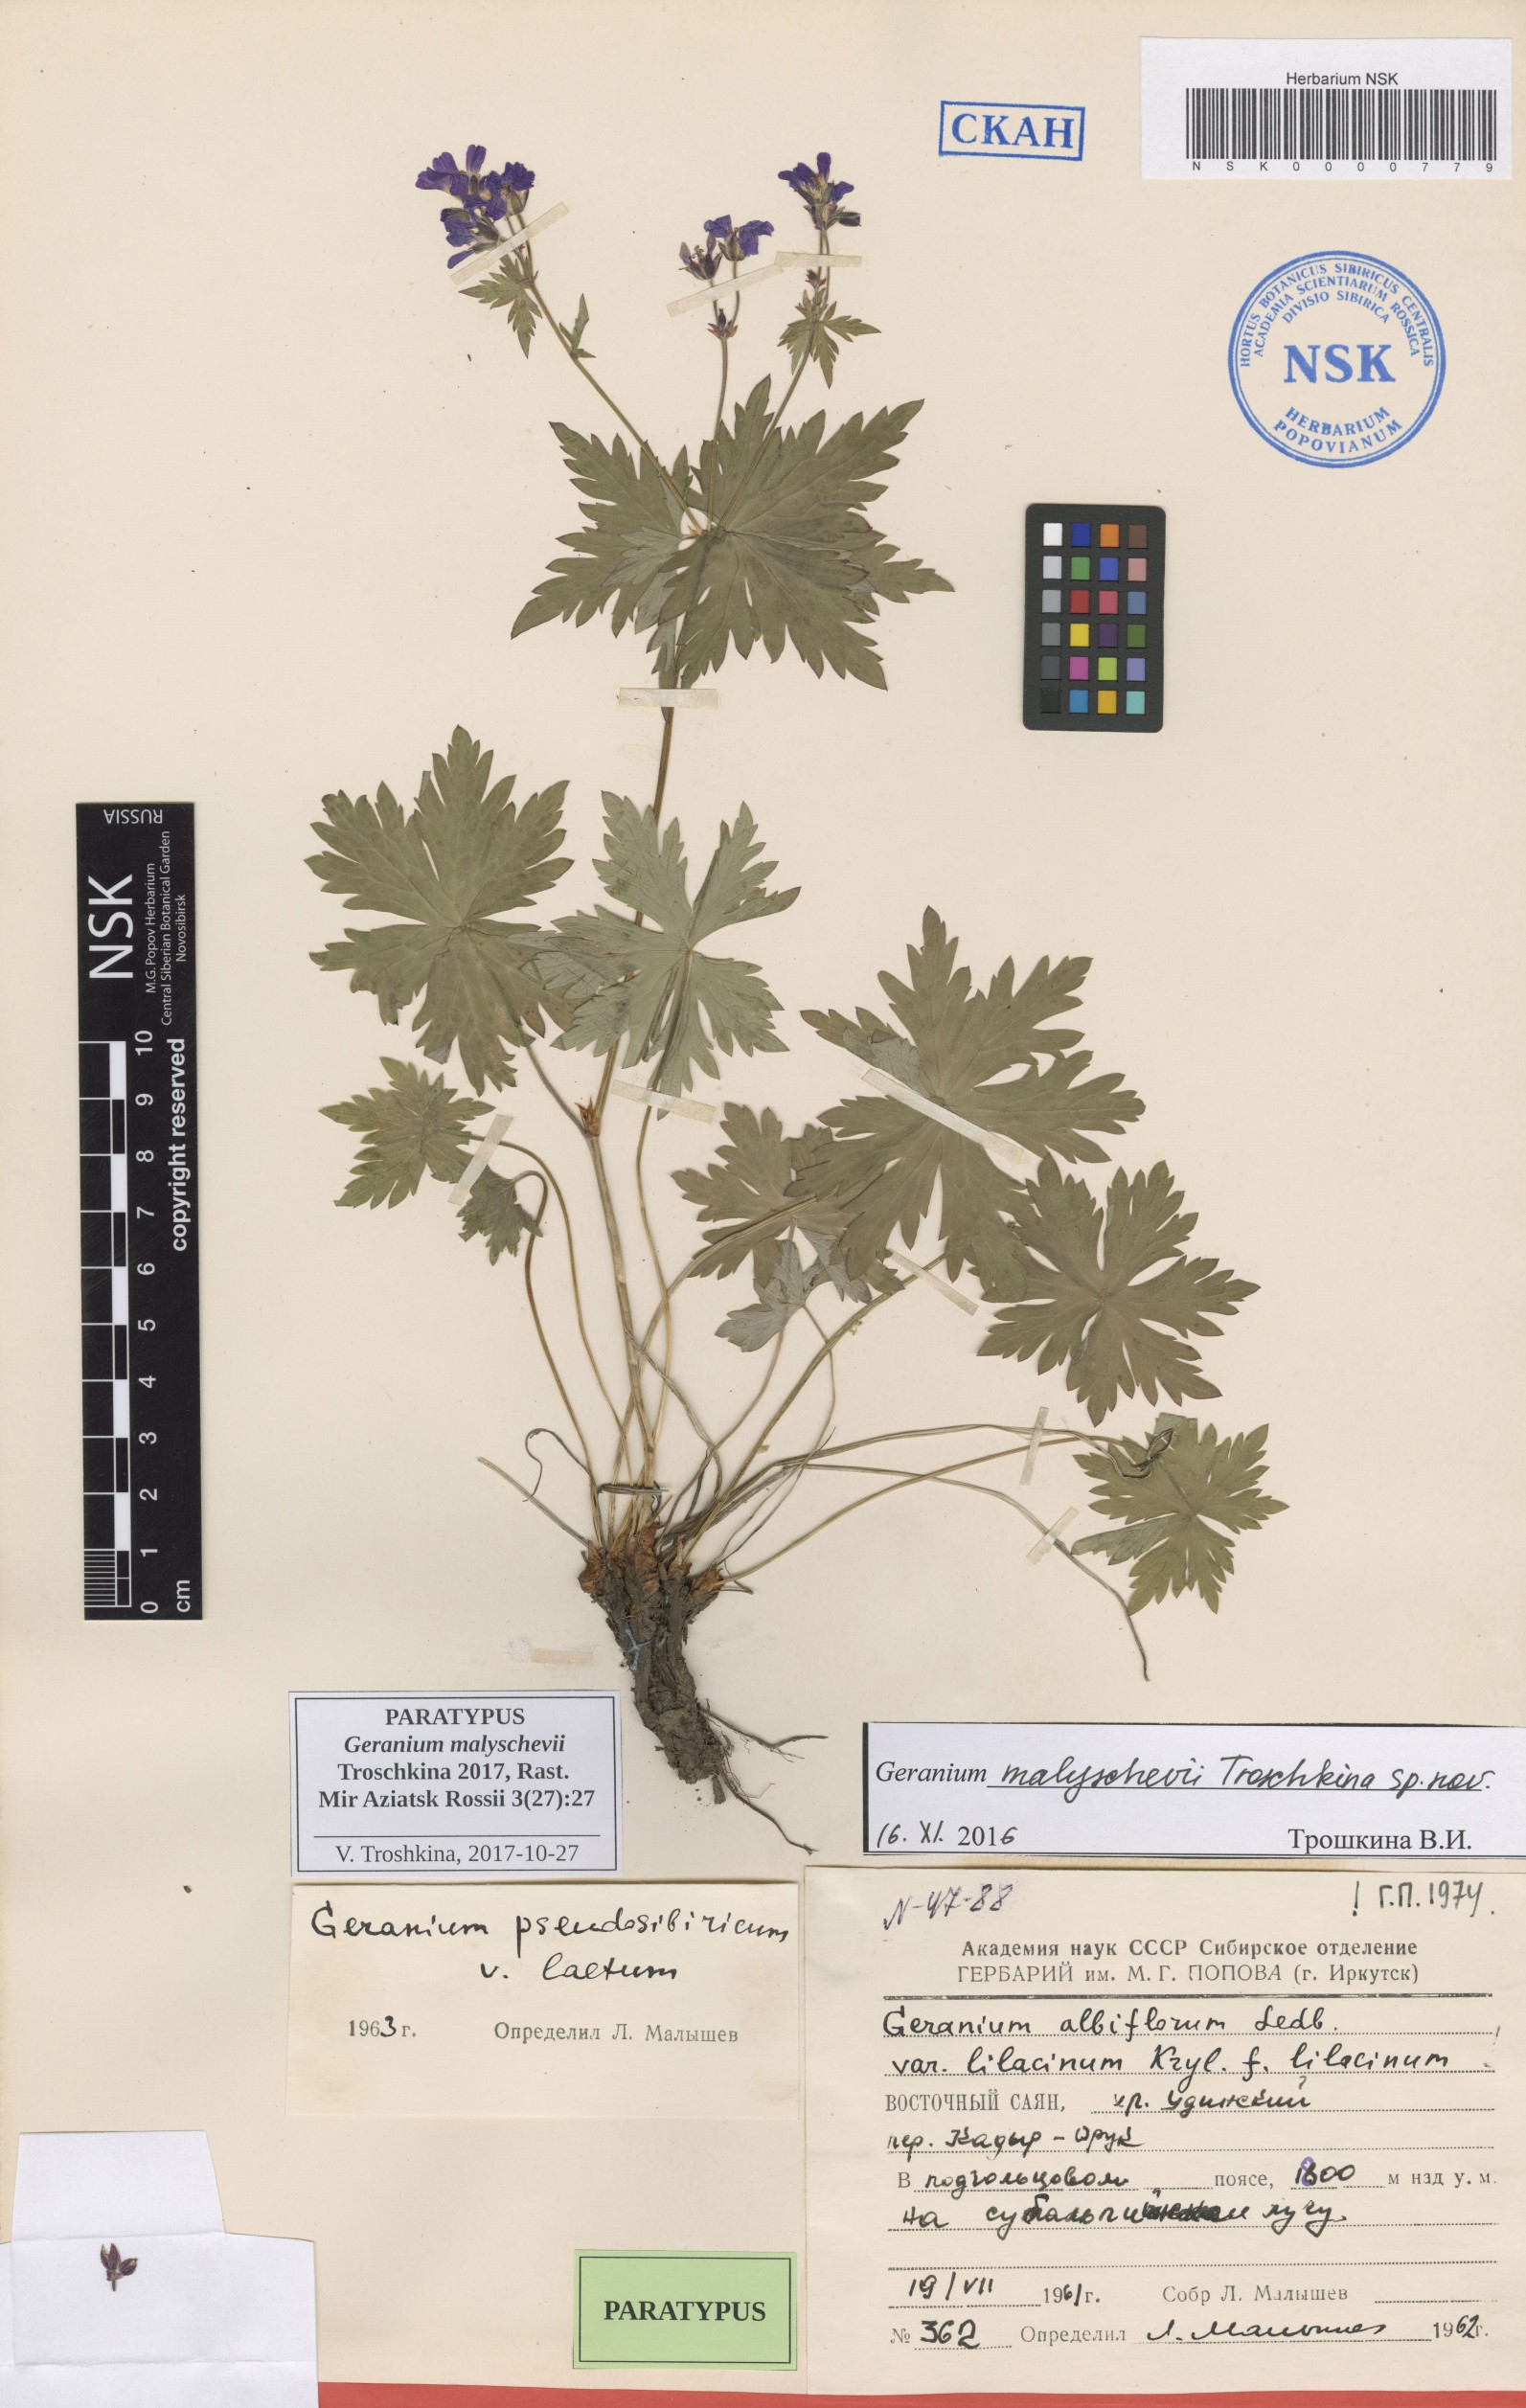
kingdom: Plantae
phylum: Tracheophyta
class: Magnoliopsida
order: Geraniales
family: Geraniaceae
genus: Geranium
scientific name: Geranium malyschevii
